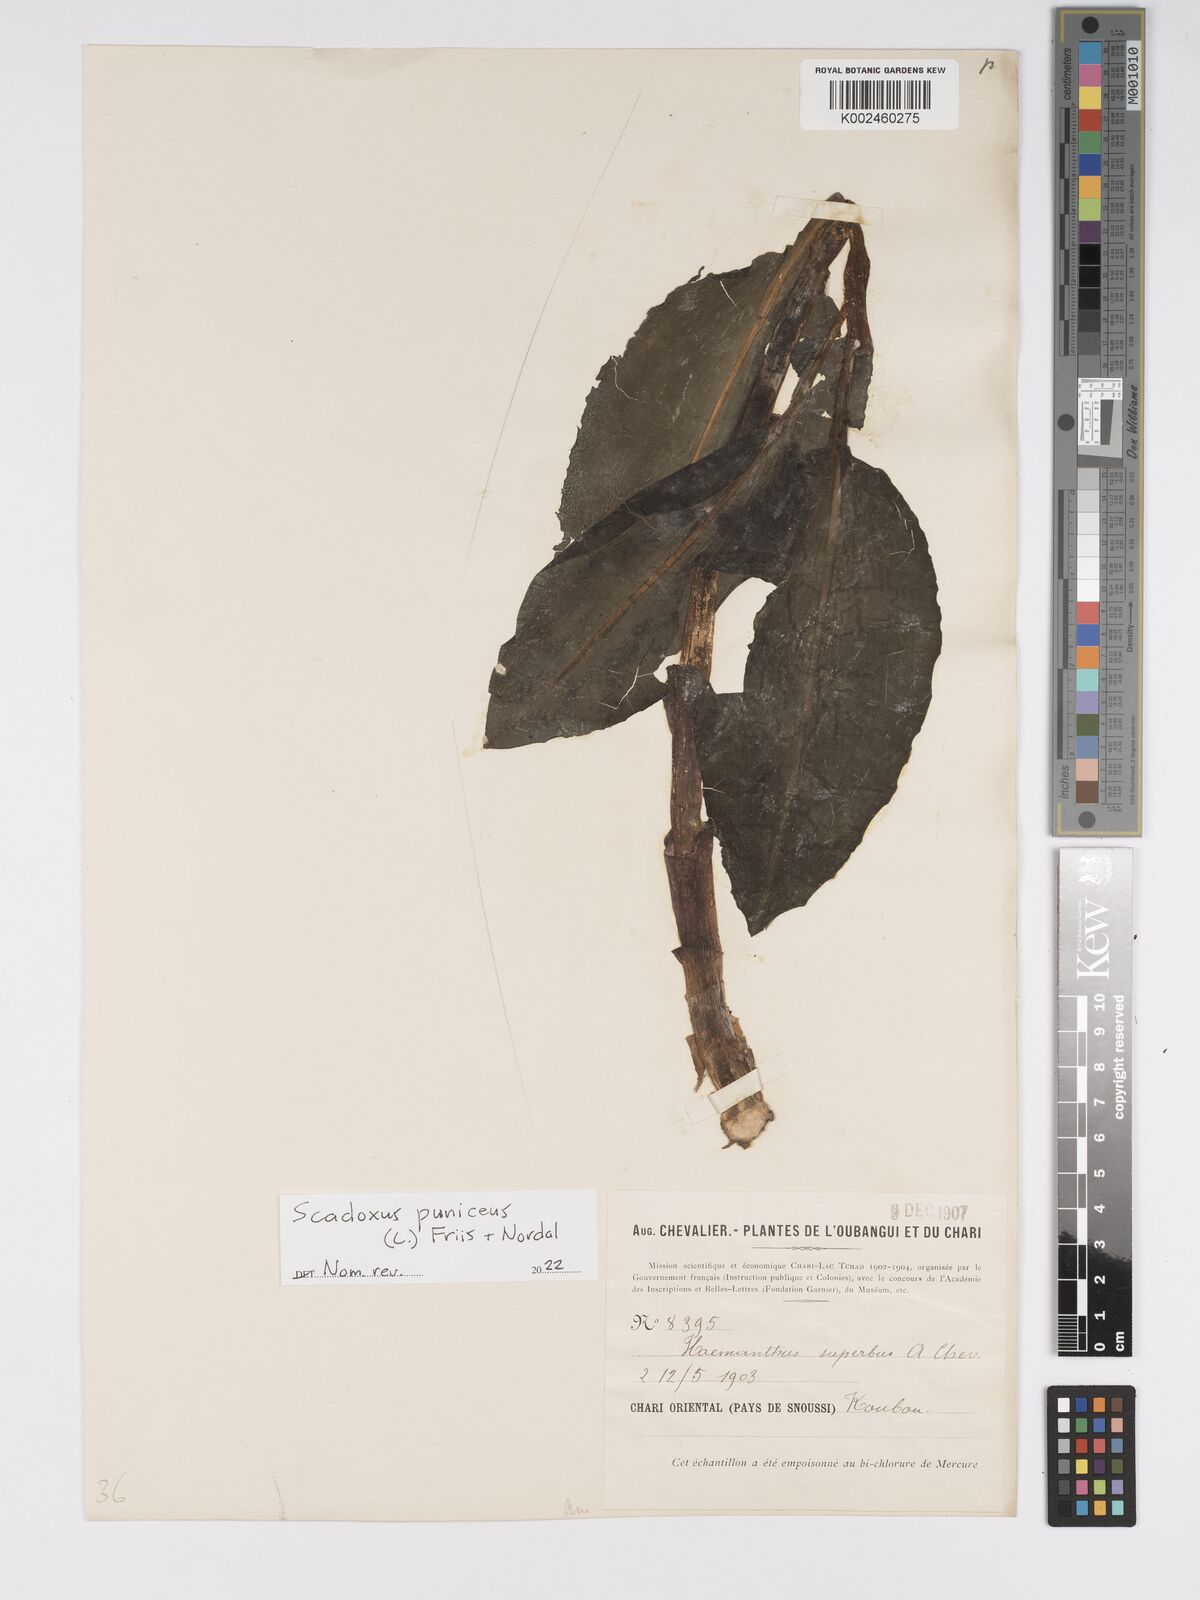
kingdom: Plantae
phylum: Tracheophyta
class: Liliopsida
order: Asparagales
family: Amaryllidaceae
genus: Scadoxus
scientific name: Scadoxus puniceus
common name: Royal-paintbrush
